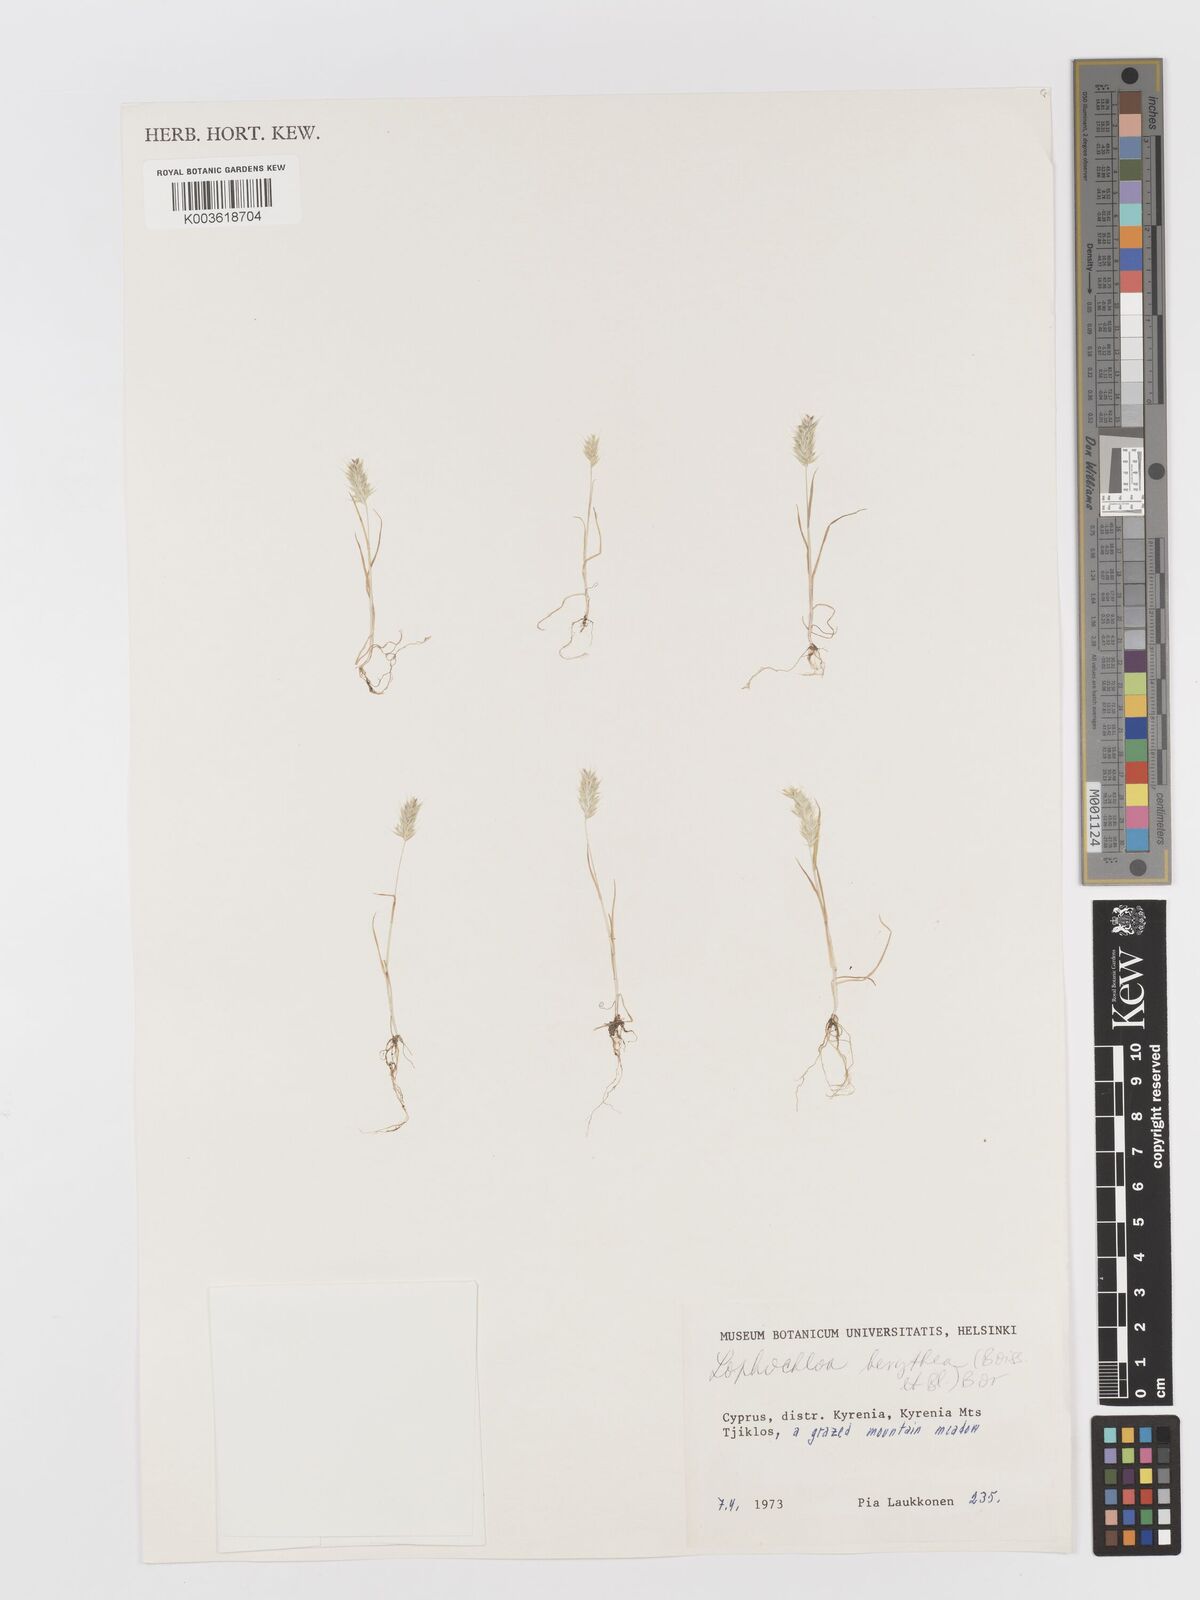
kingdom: Plantae
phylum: Tracheophyta
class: Liliopsida
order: Poales
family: Poaceae
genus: Rostraria
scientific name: Rostraria smyrnaea
